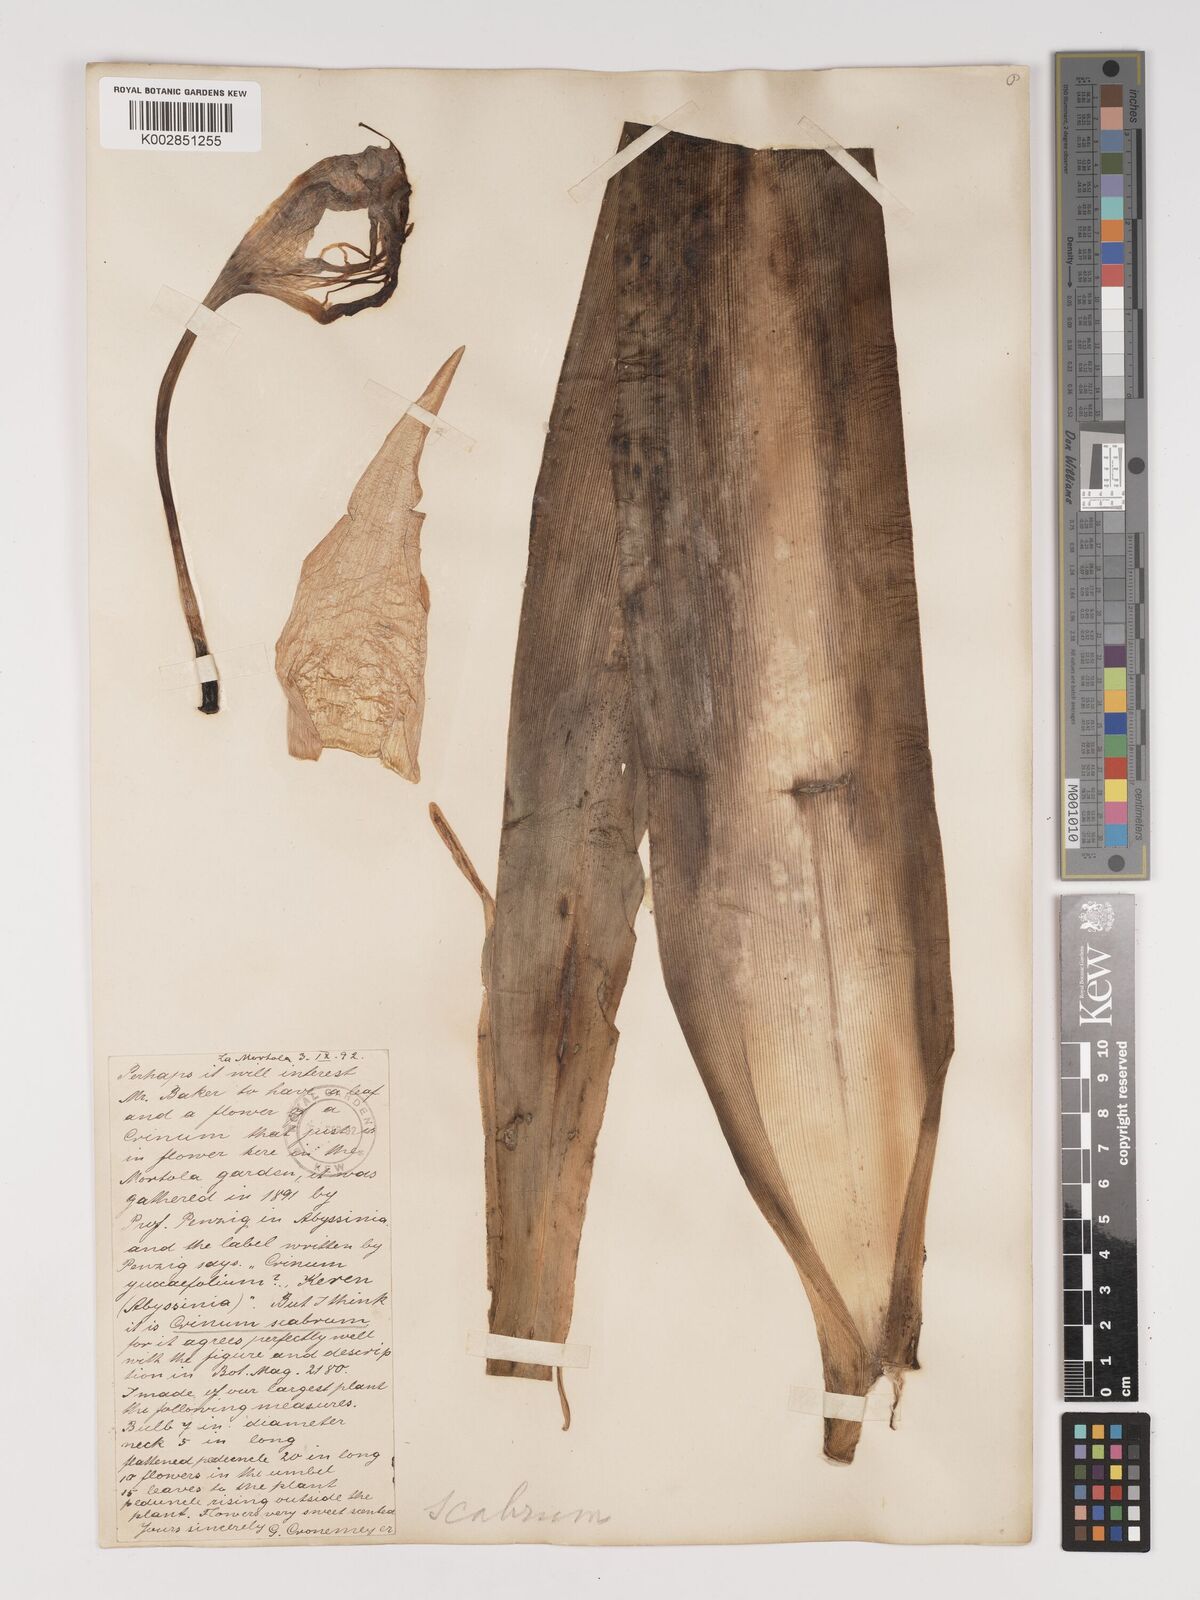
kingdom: Plantae
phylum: Tracheophyta
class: Liliopsida
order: Asparagales
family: Amaryllidaceae
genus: Crinum
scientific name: Crinum
